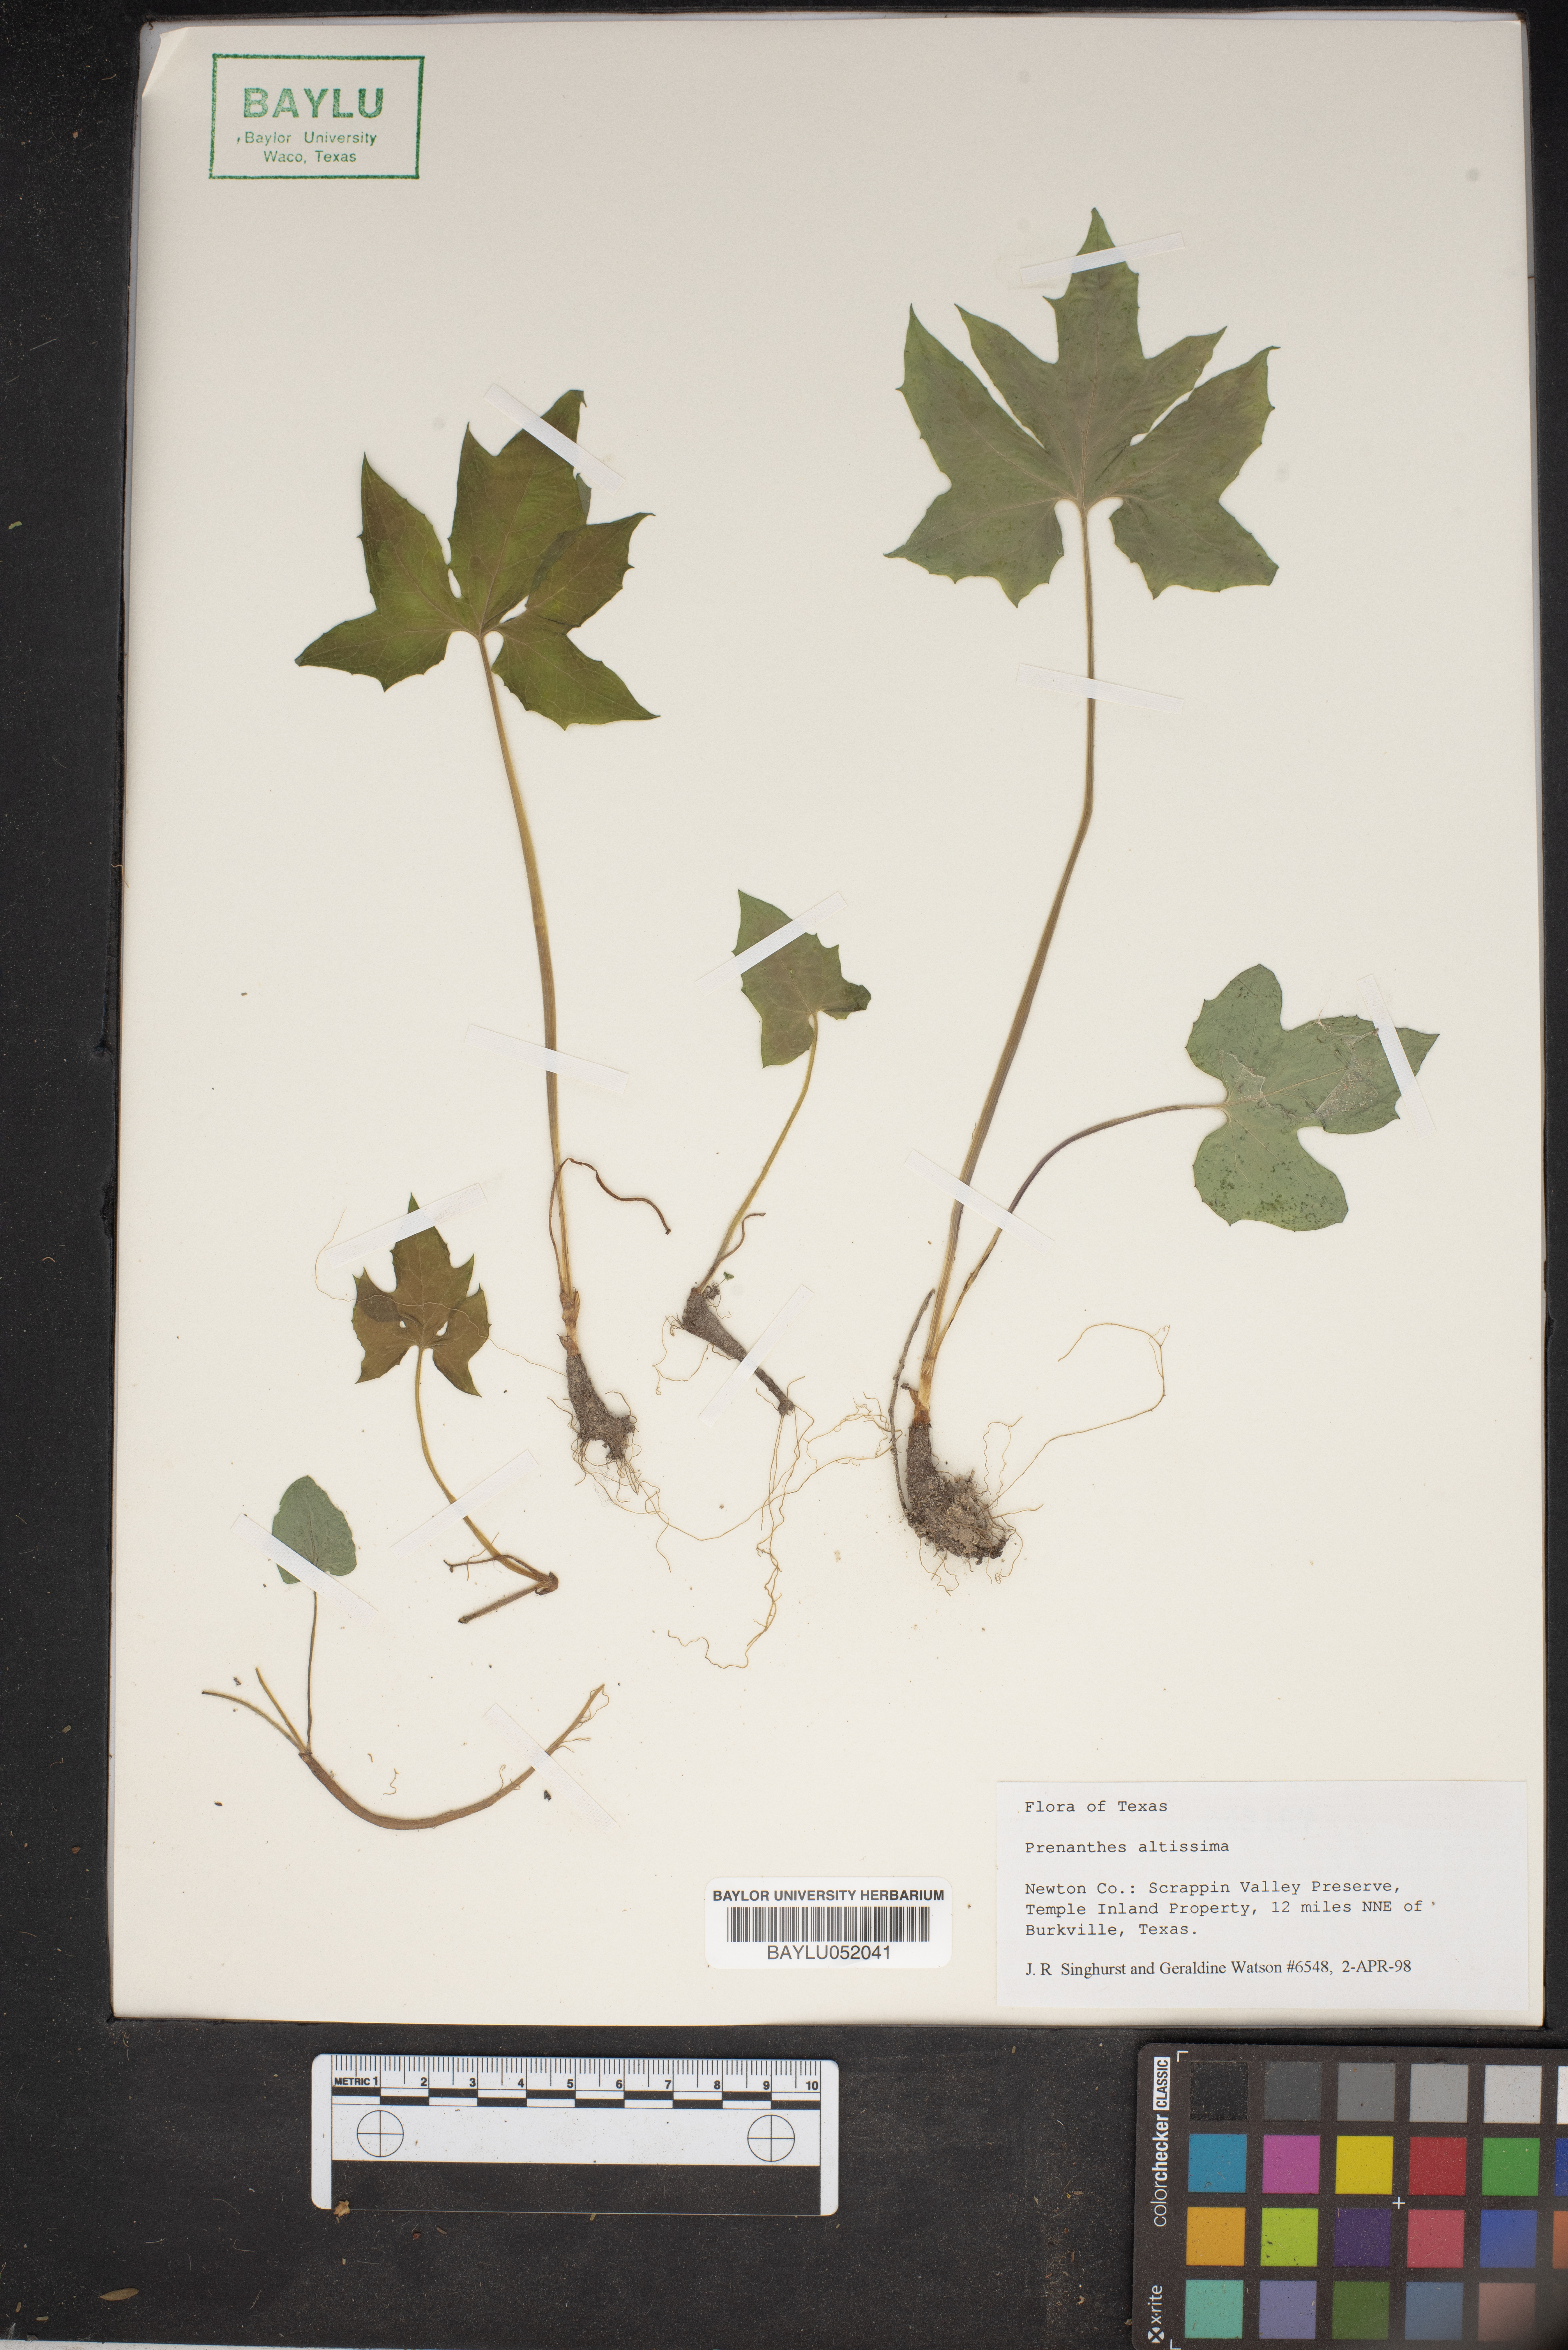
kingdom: Plantae
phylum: Tracheophyta
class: Magnoliopsida
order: Asterales
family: Asteraceae
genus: Lactuca
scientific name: Lactuca quercina
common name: Wild lettuce
